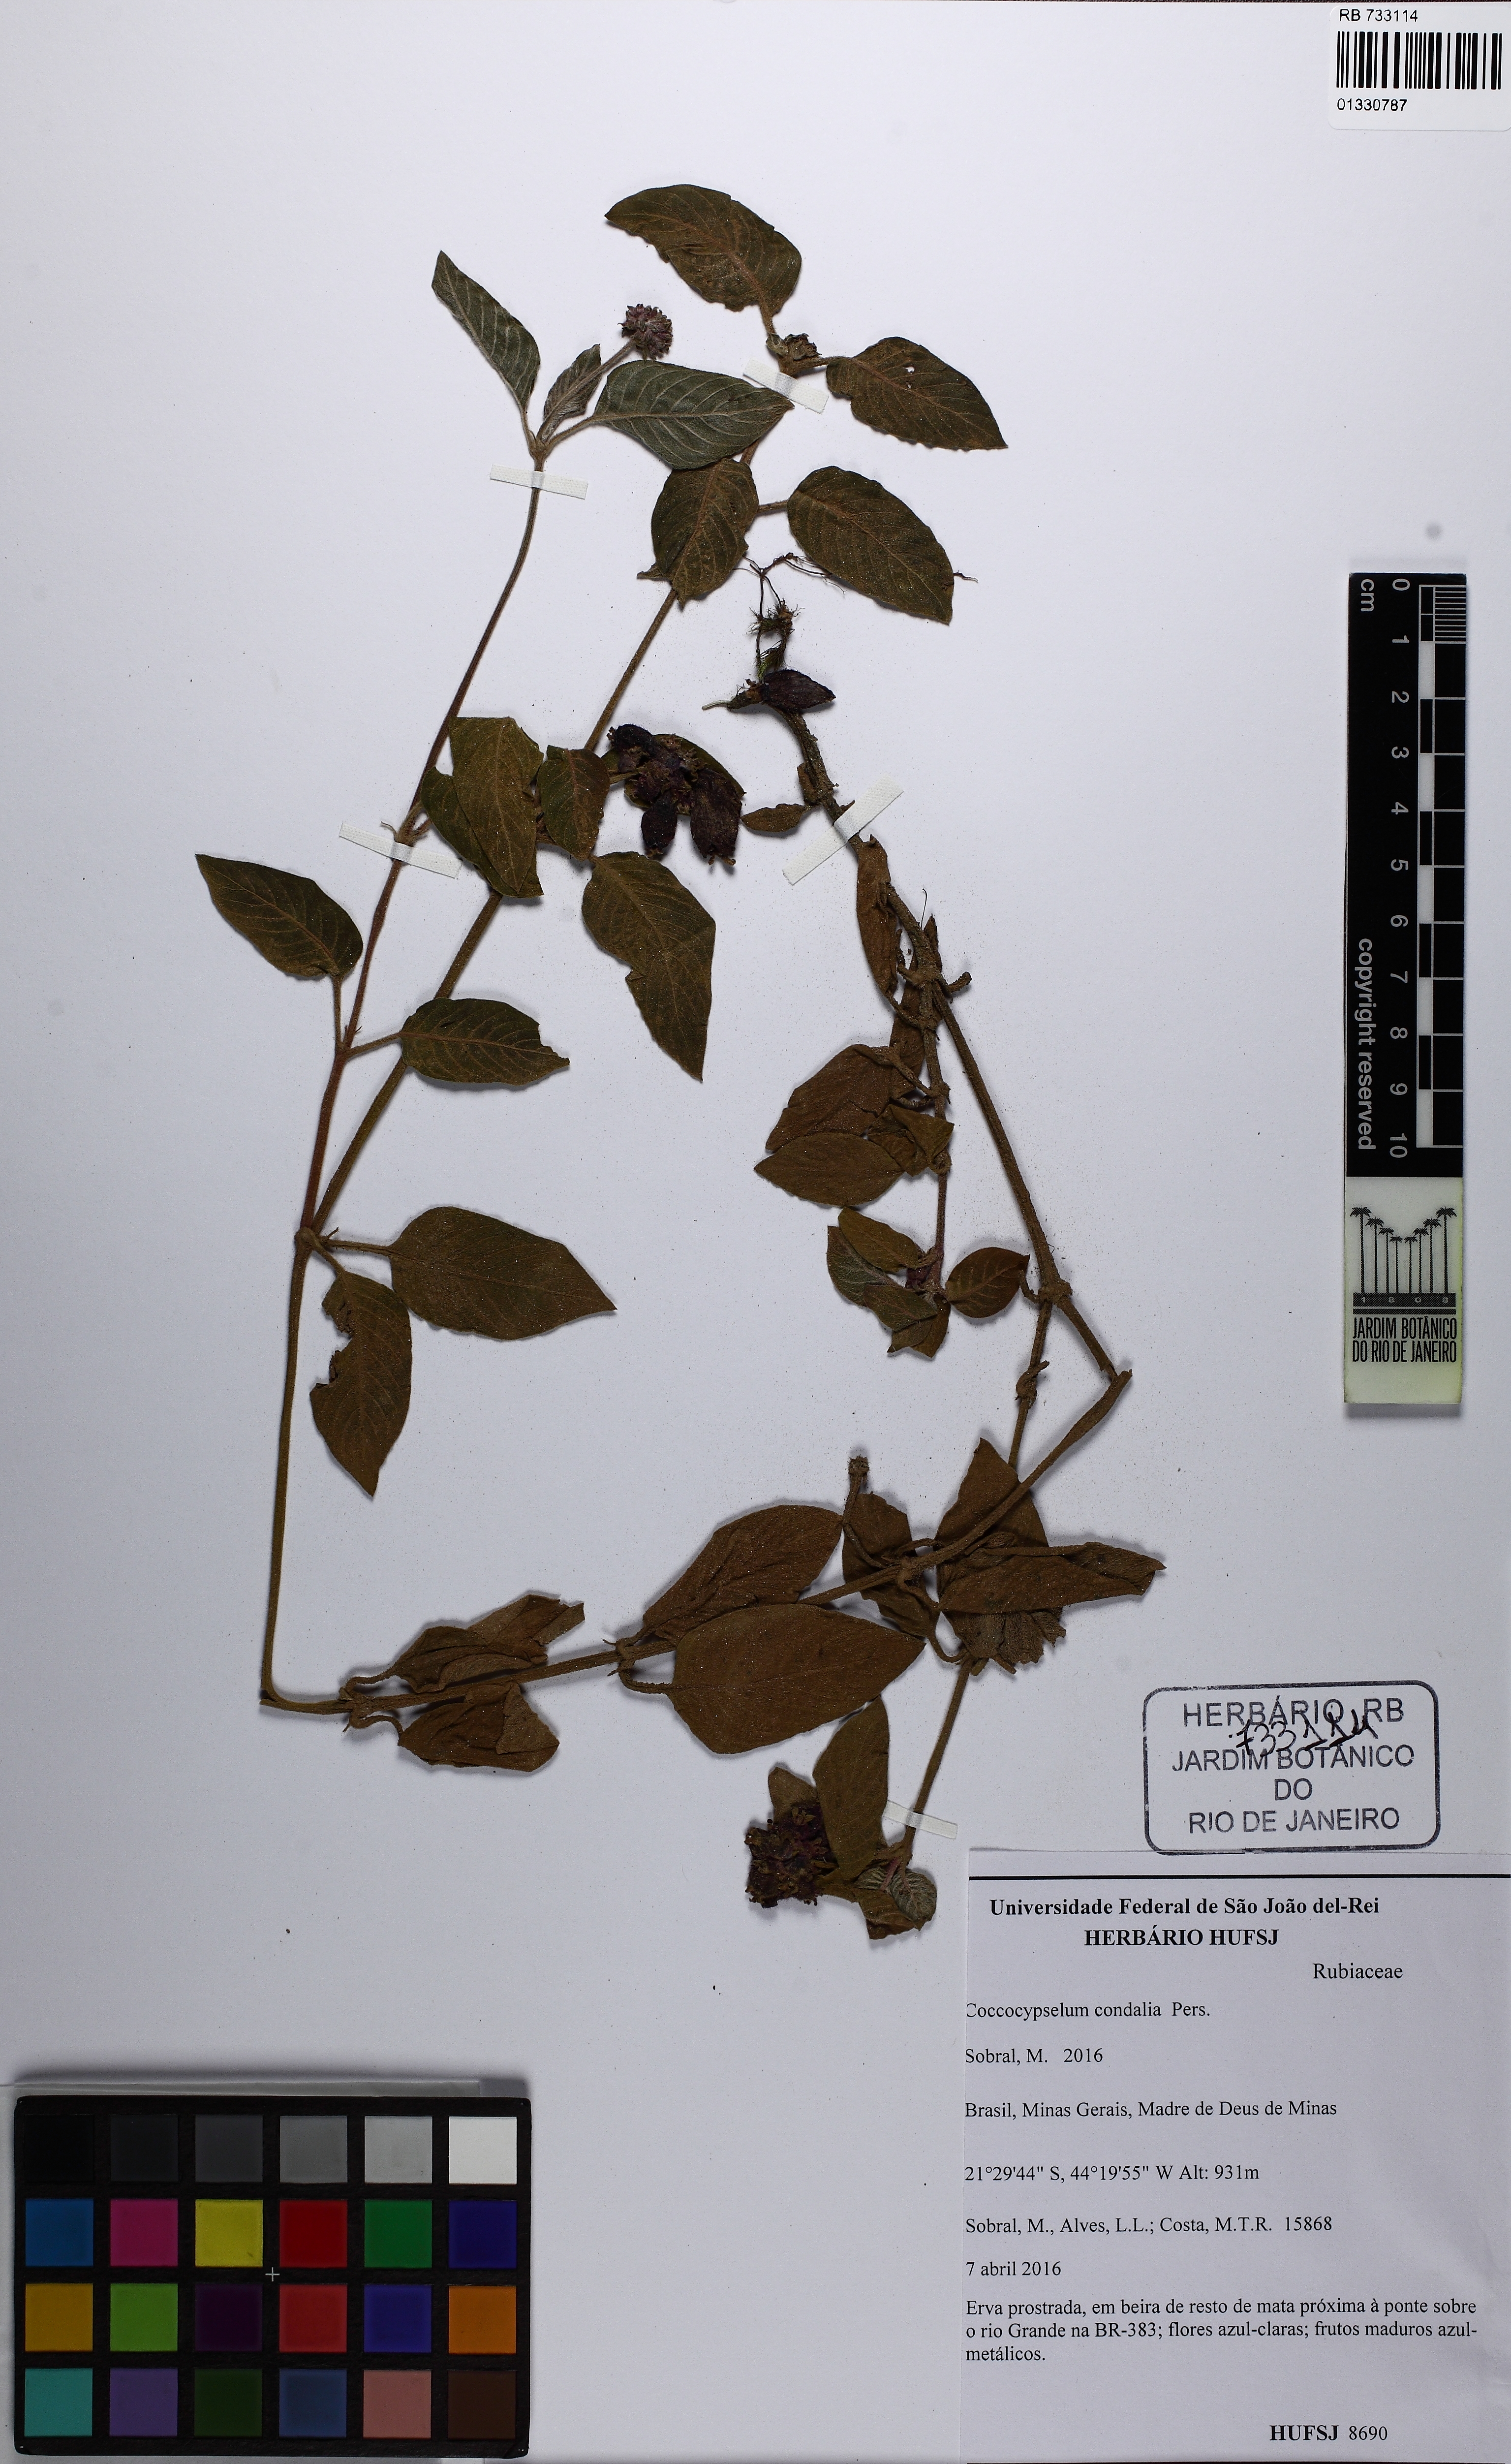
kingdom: Plantae
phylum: Tracheophyta
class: Magnoliopsida
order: Gentianales
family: Rubiaceae
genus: Coccocypselum
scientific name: Coccocypselum condalia
